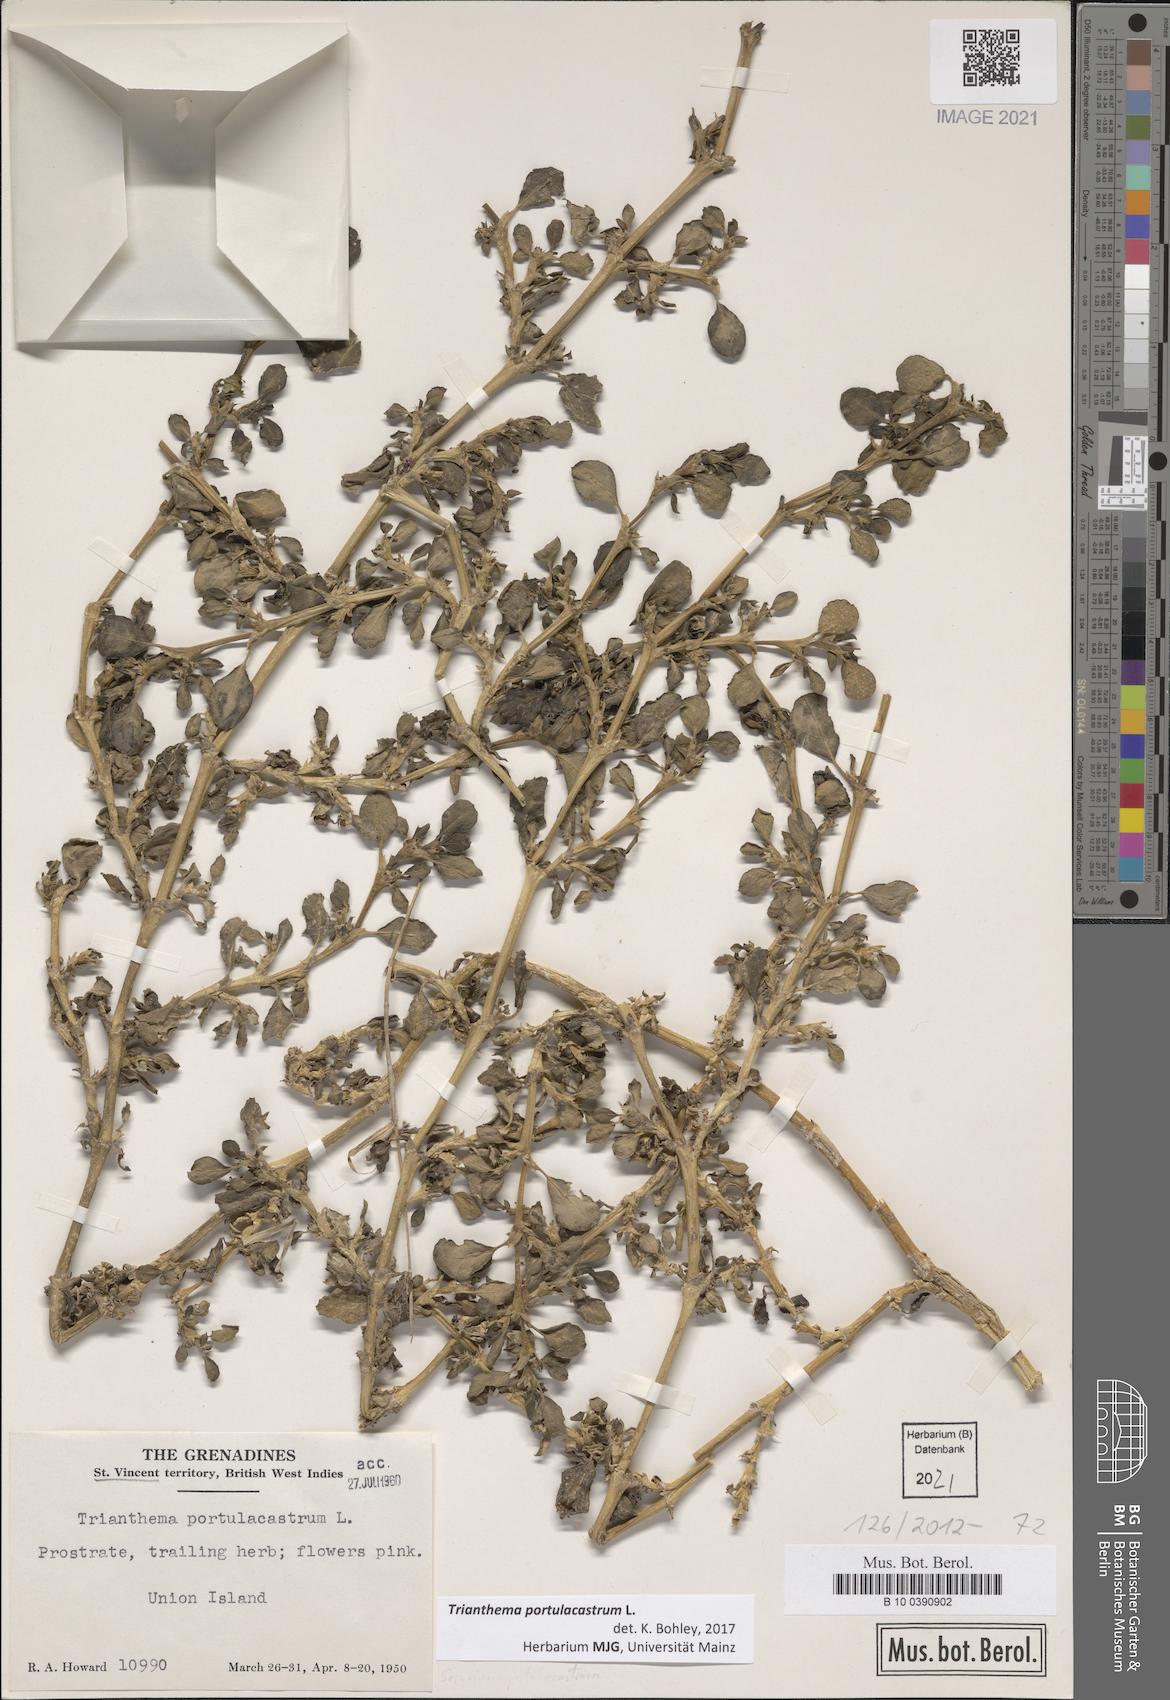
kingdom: Plantae
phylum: Tracheophyta
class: Magnoliopsida
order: Caryophyllales
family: Aizoaceae
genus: Trianthema
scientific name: Trianthema portulacastrum
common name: Desert horsepurslane
